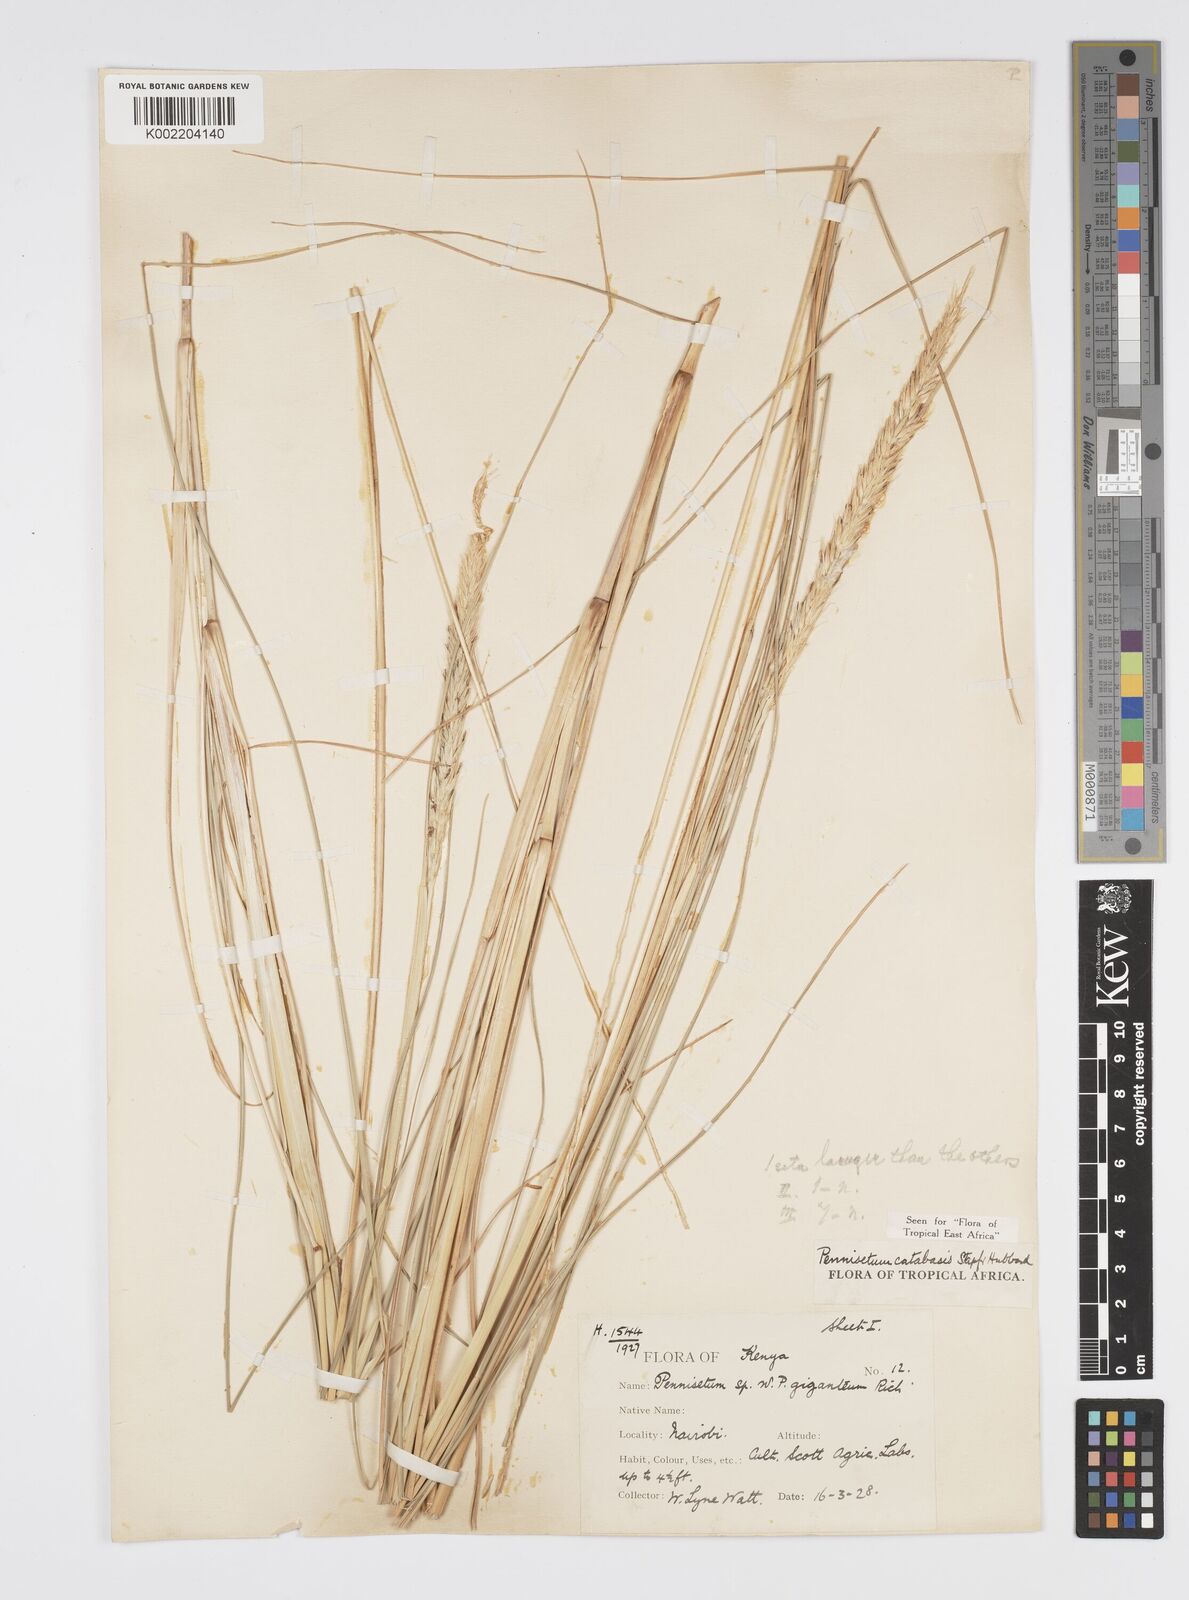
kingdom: Plantae
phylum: Tracheophyta
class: Liliopsida
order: Poales
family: Poaceae
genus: Cenchrus
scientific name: Cenchrus Pennisetum spec
